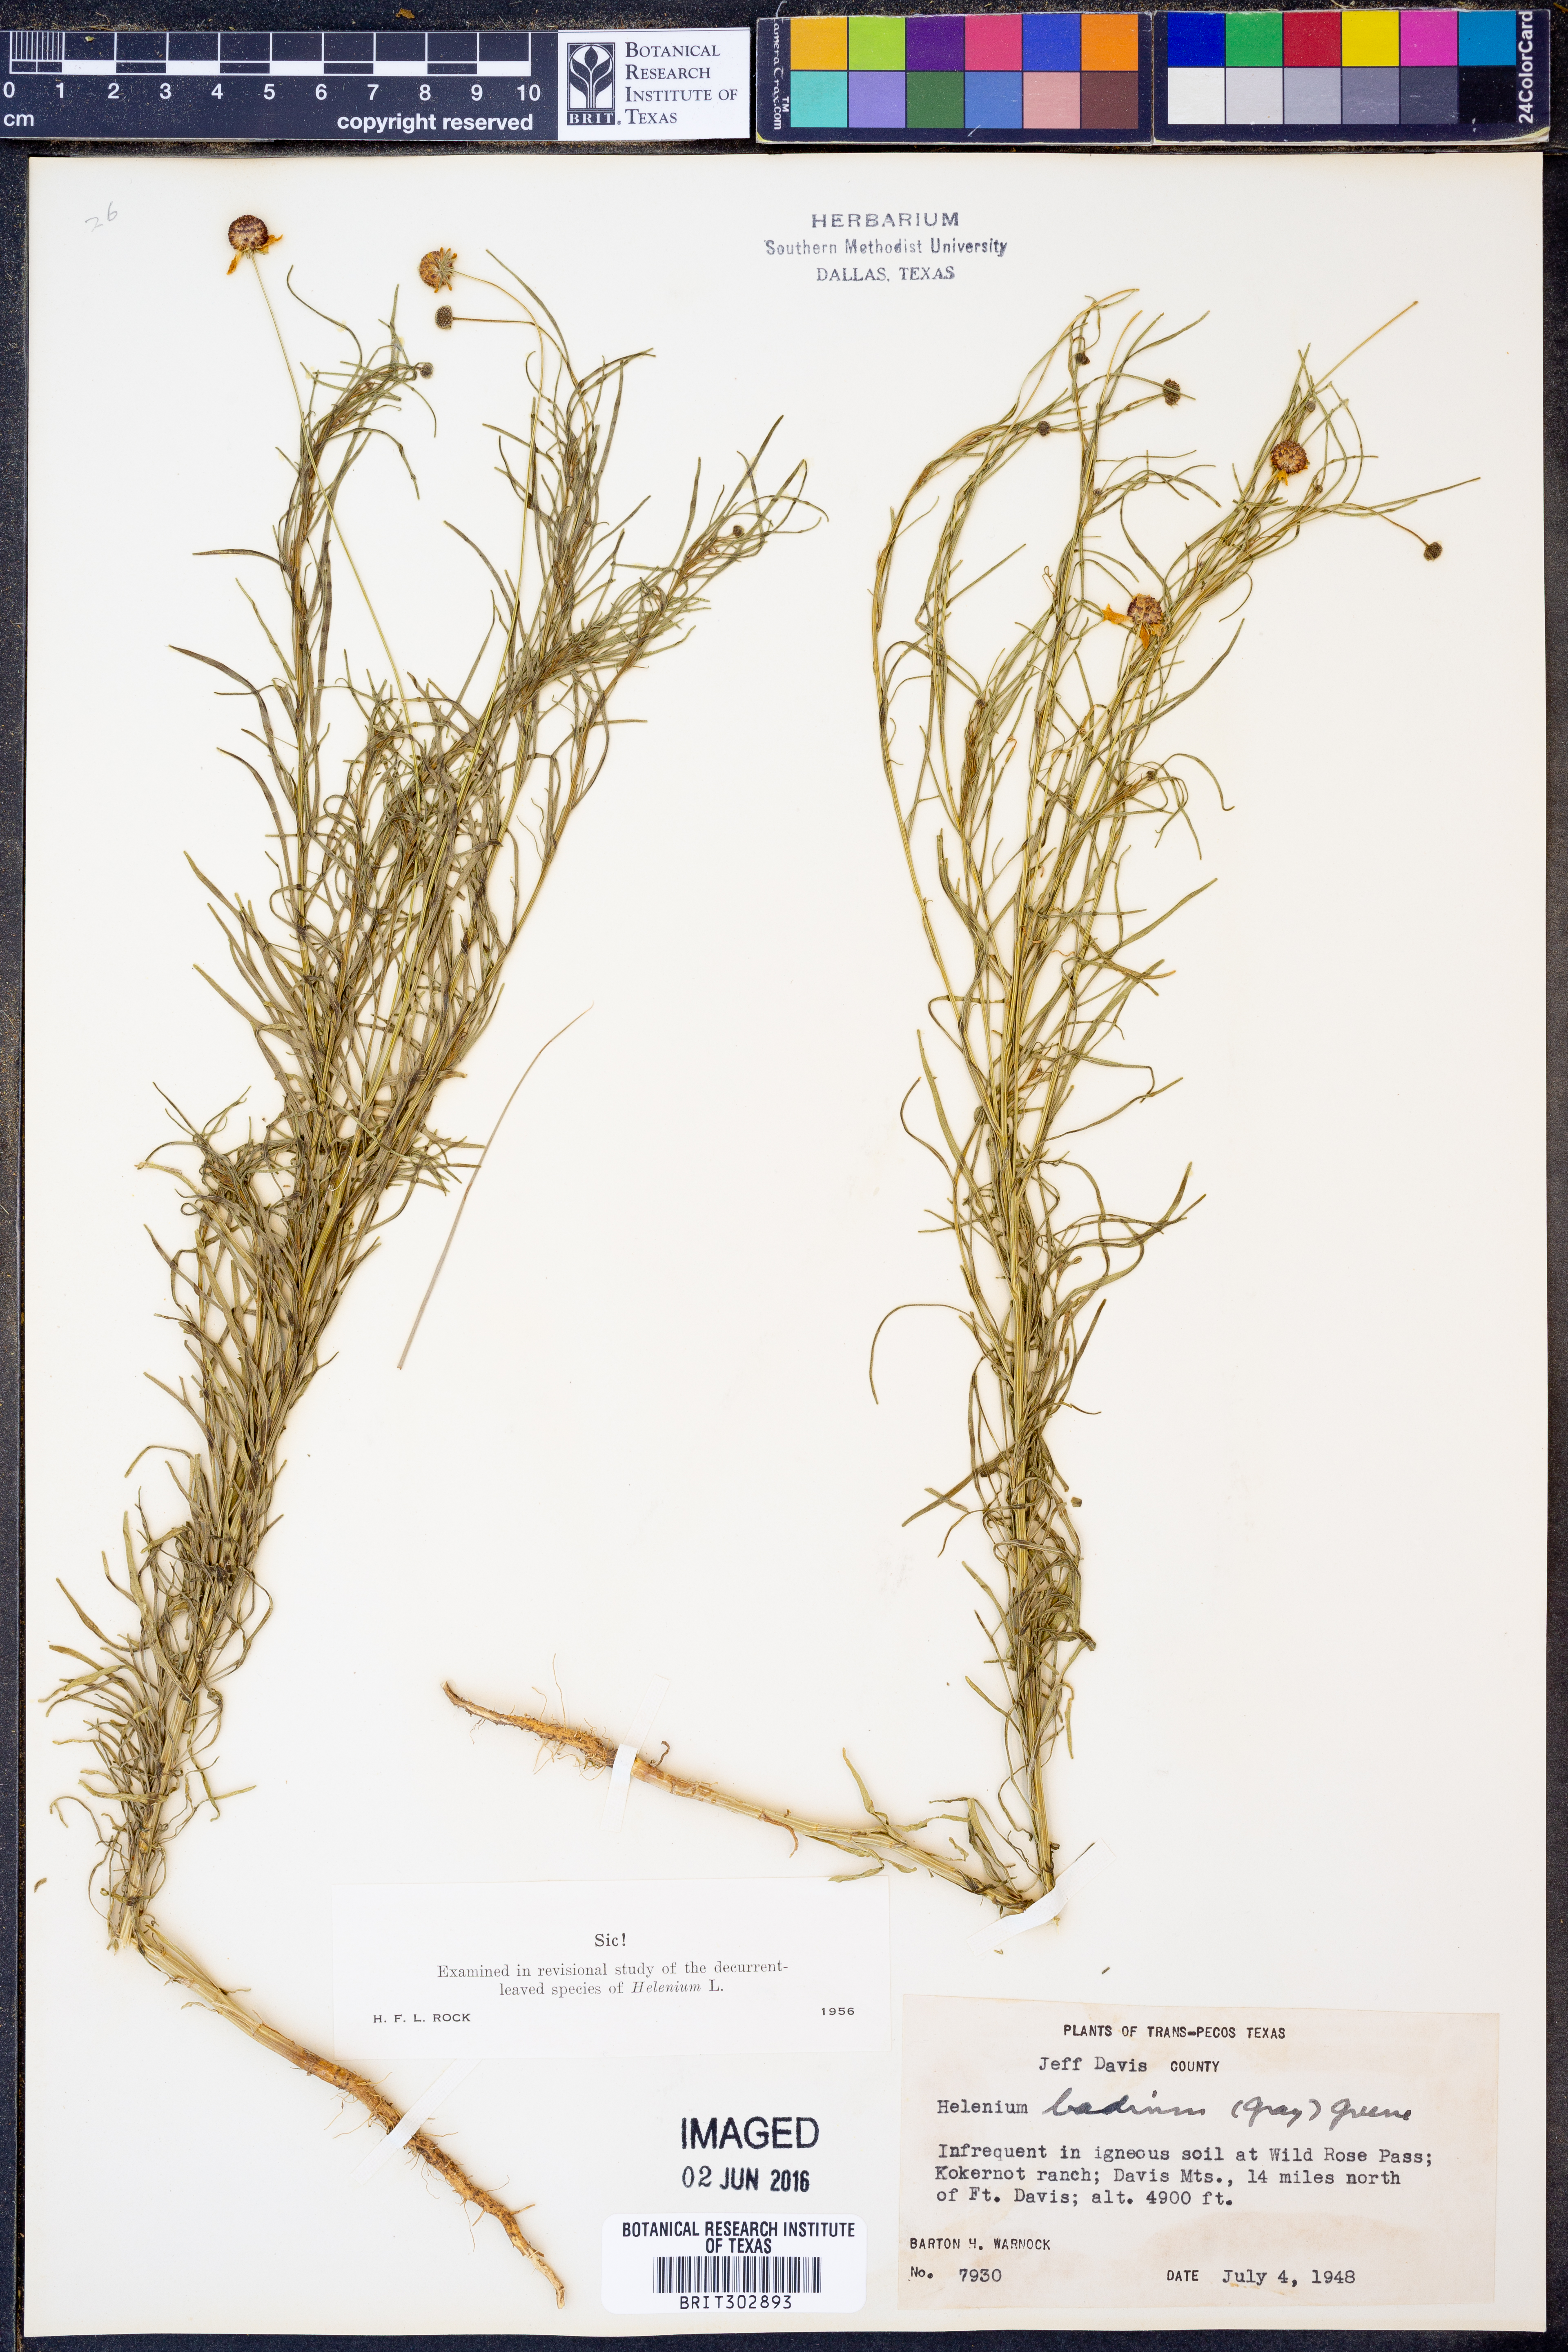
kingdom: Plantae
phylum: Tracheophyta
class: Magnoliopsida
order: Asterales
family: Asteraceae
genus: Helenium
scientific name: Helenium amarum
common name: Bitter sneezeweed
